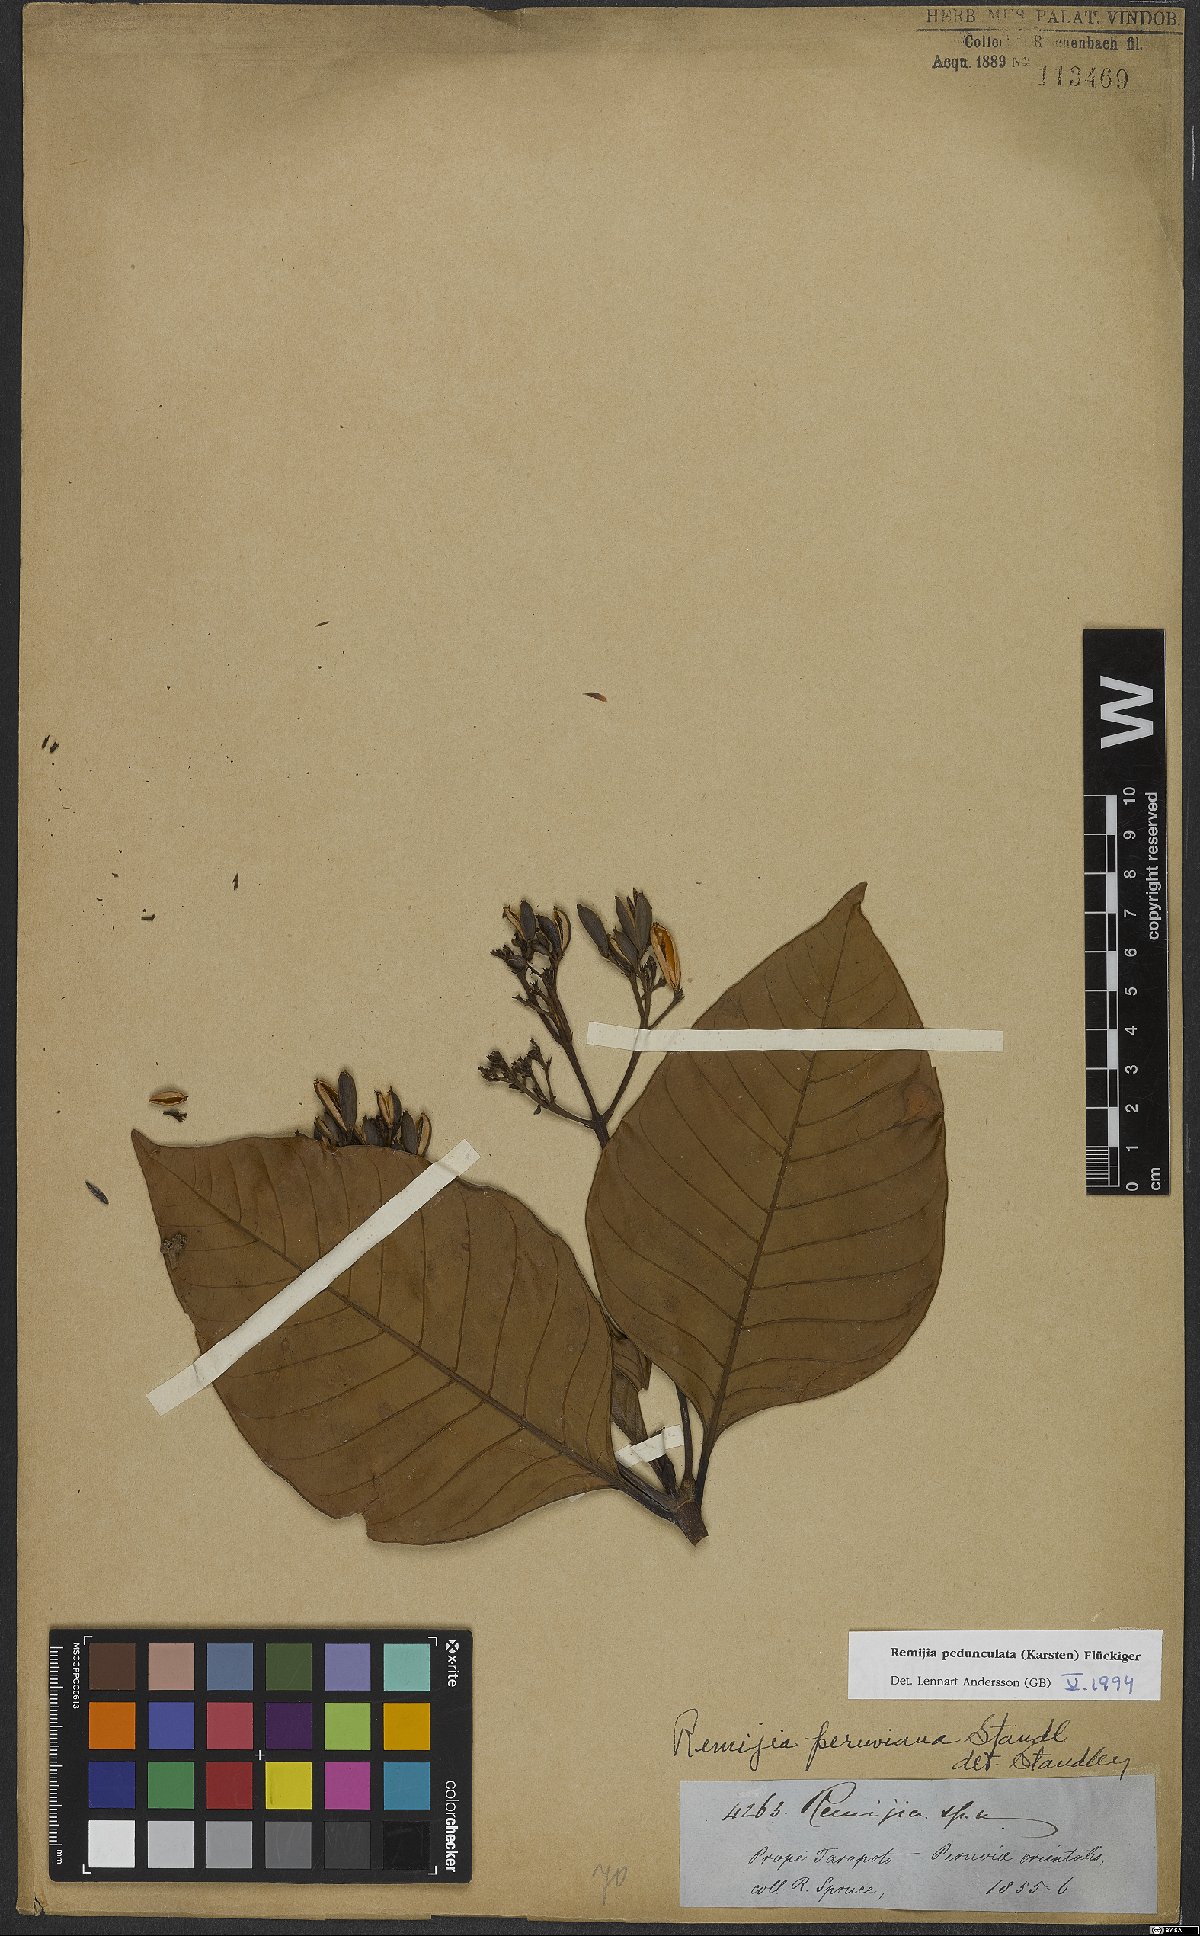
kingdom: Plantae
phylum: Tracheophyta
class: Magnoliopsida
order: Gentianales
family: Rubiaceae
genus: Ciliosemina
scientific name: Ciliosemina pedunculata
